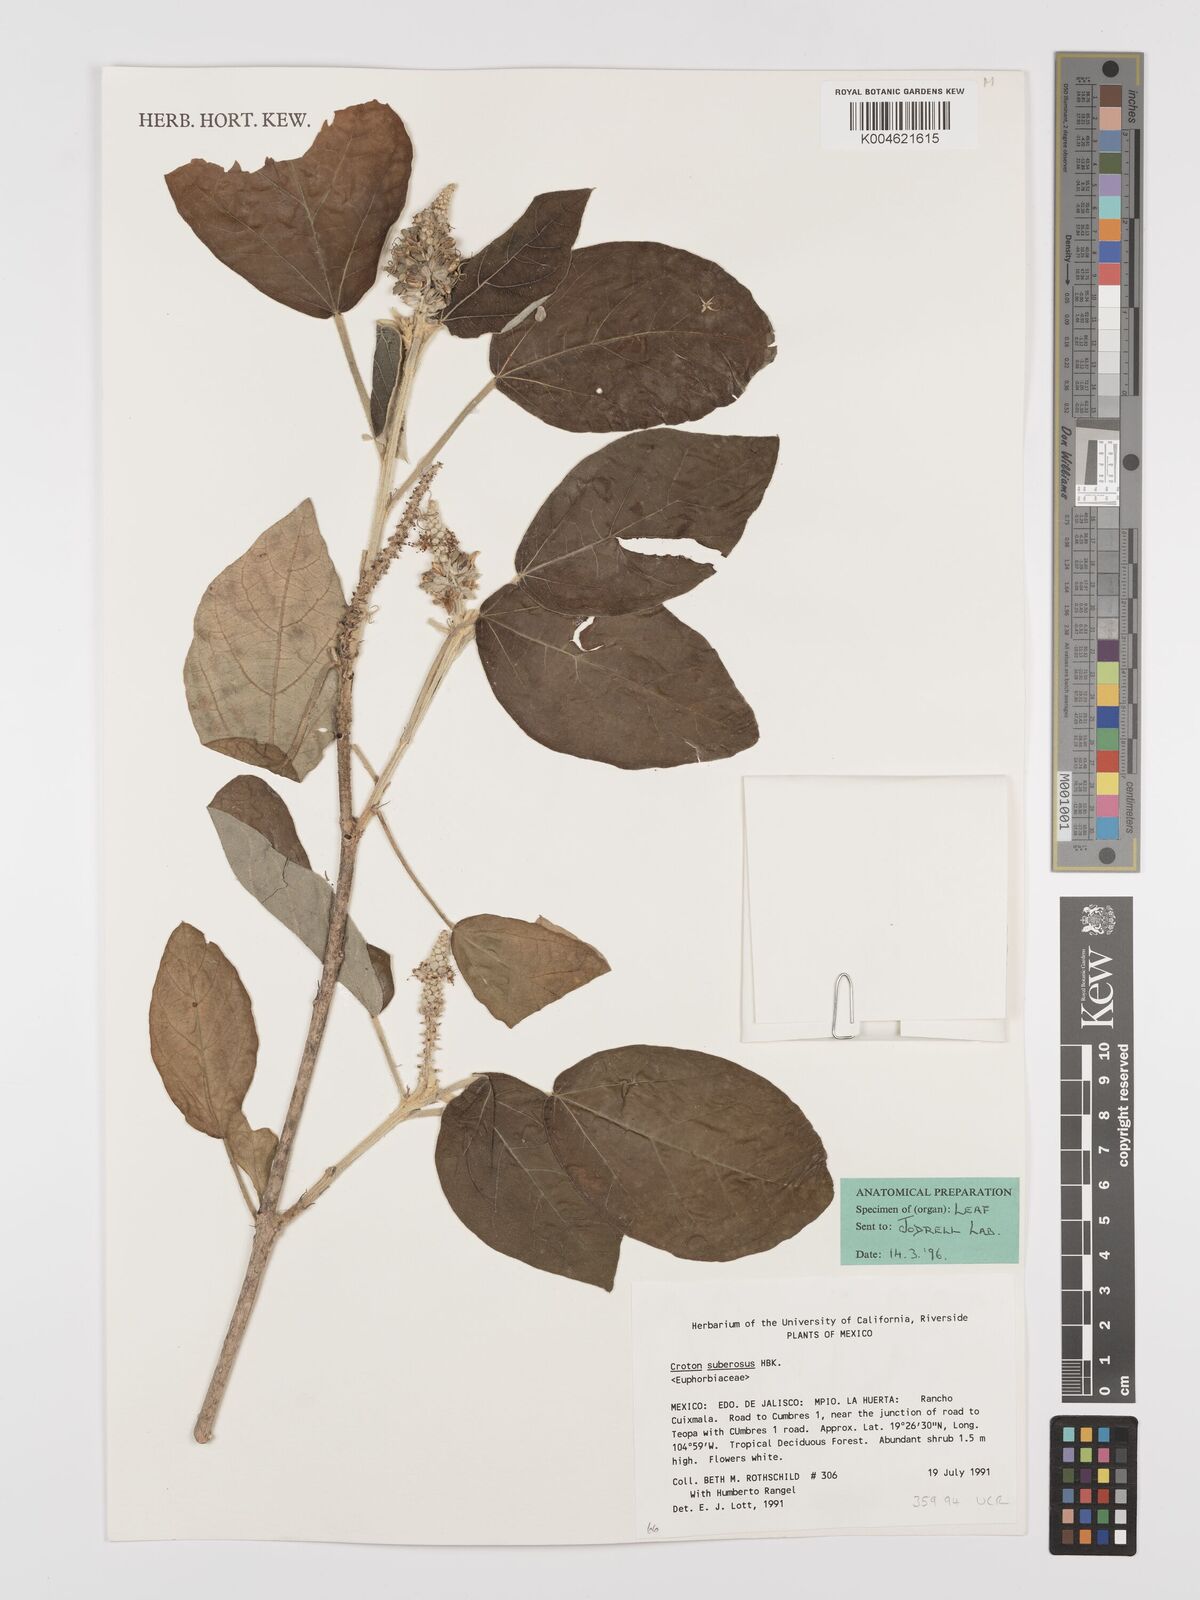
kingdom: Plantae
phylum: Tracheophyta
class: Magnoliopsida
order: Malpighiales
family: Euphorbiaceae
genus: Croton
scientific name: Croton suberosus
